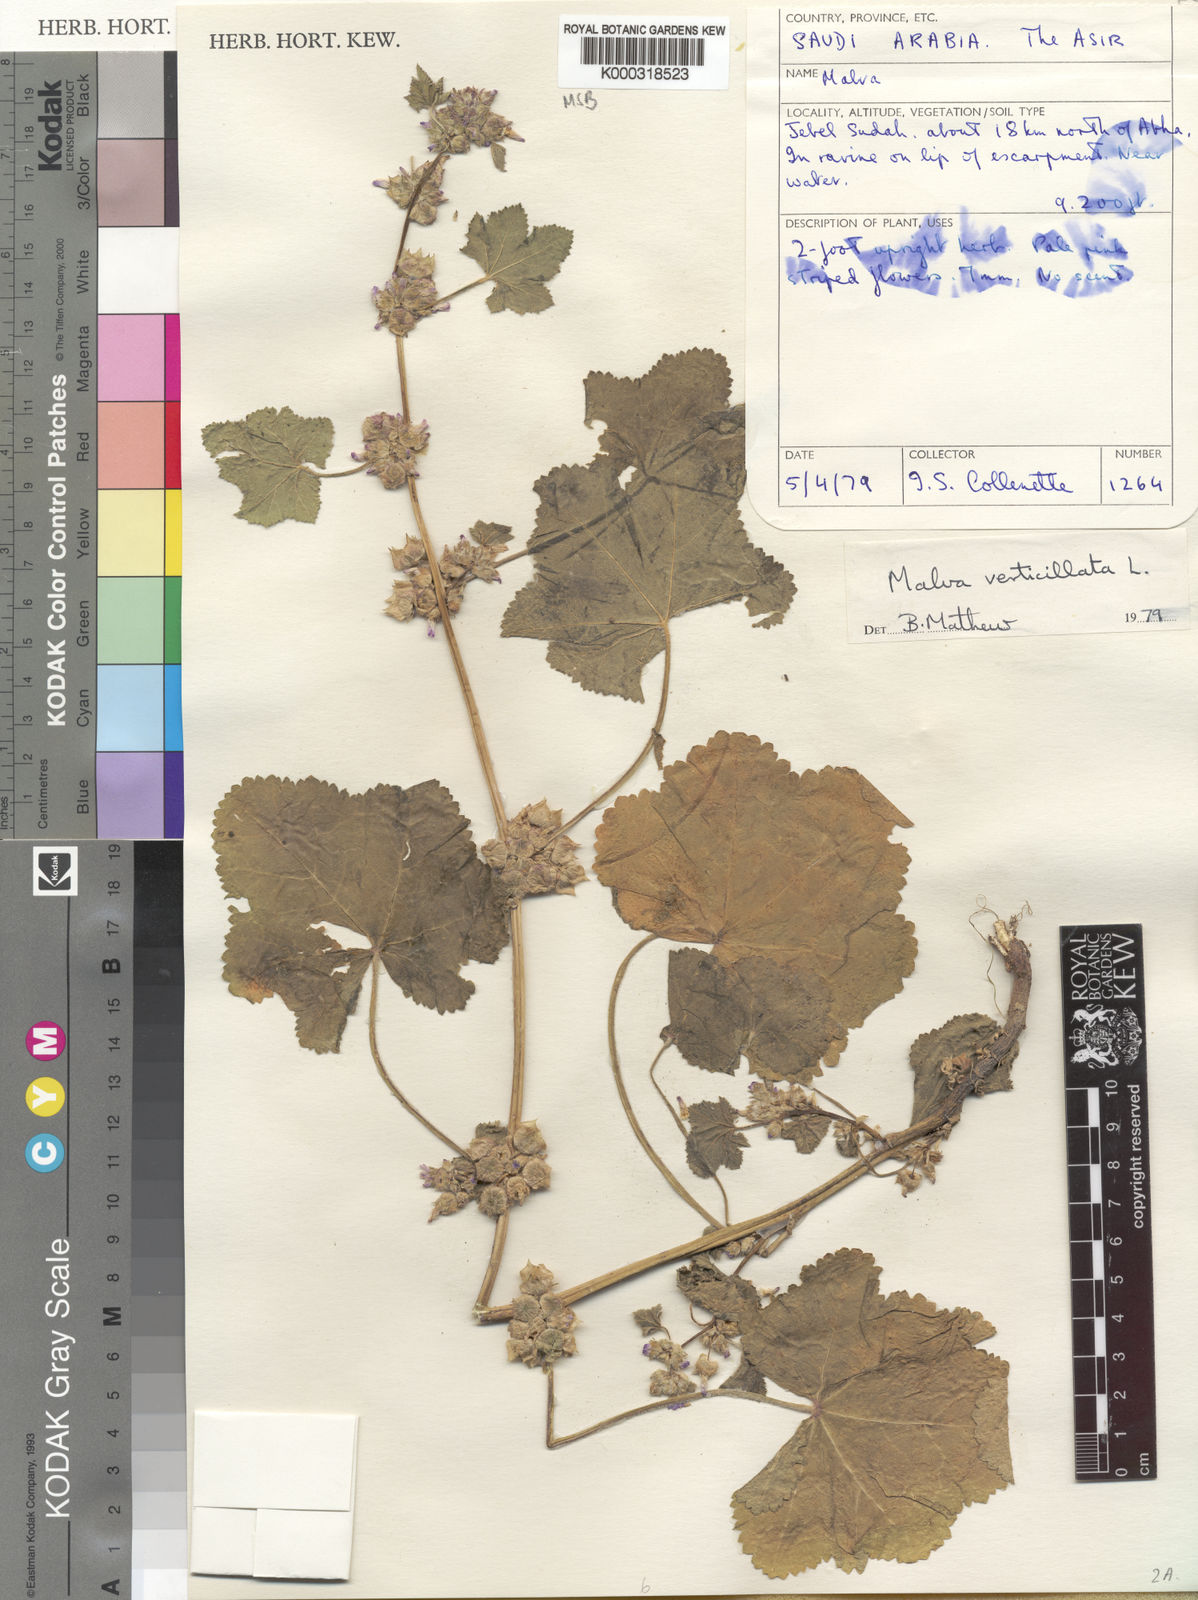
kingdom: Plantae
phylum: Tracheophyta
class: Magnoliopsida
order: Malvales
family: Malvaceae
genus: Malva
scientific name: Malva verticillata
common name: Chinese mallow
